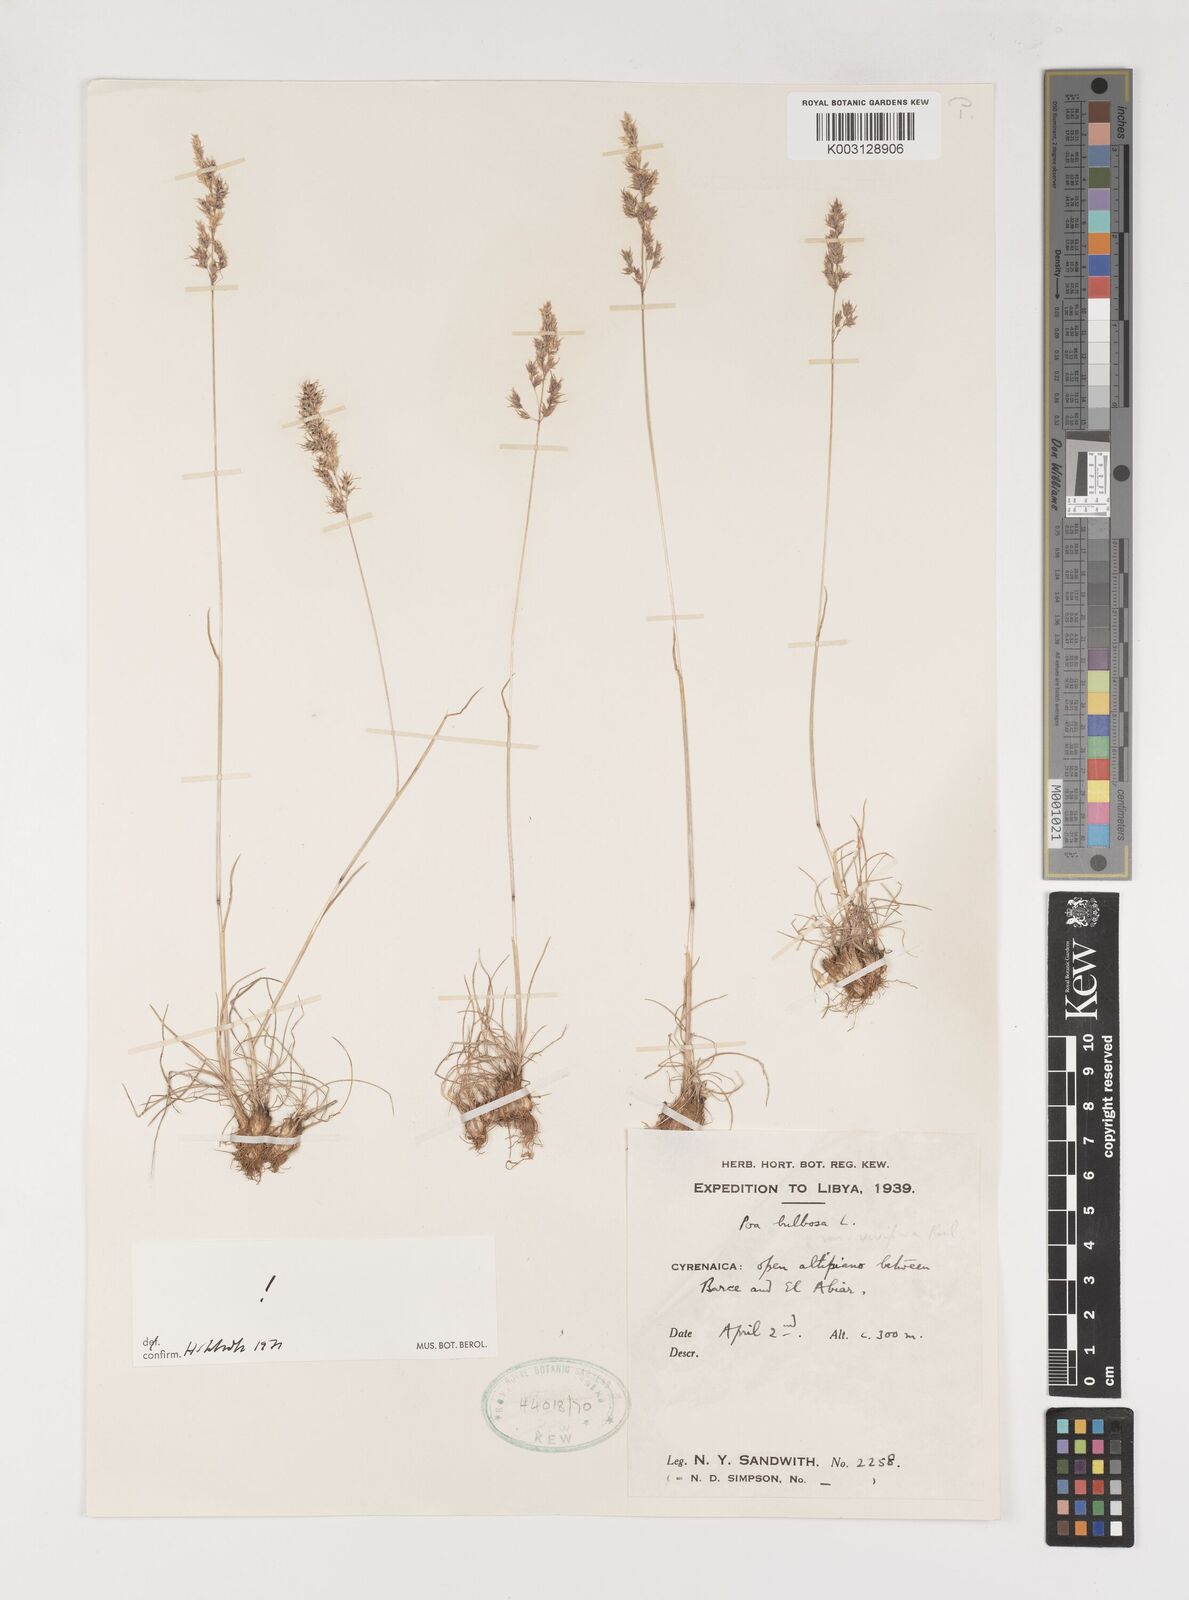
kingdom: Plantae
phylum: Tracheophyta
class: Liliopsida
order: Poales
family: Poaceae
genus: Poa
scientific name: Poa bulbosa
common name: Bulbous bluegrass
